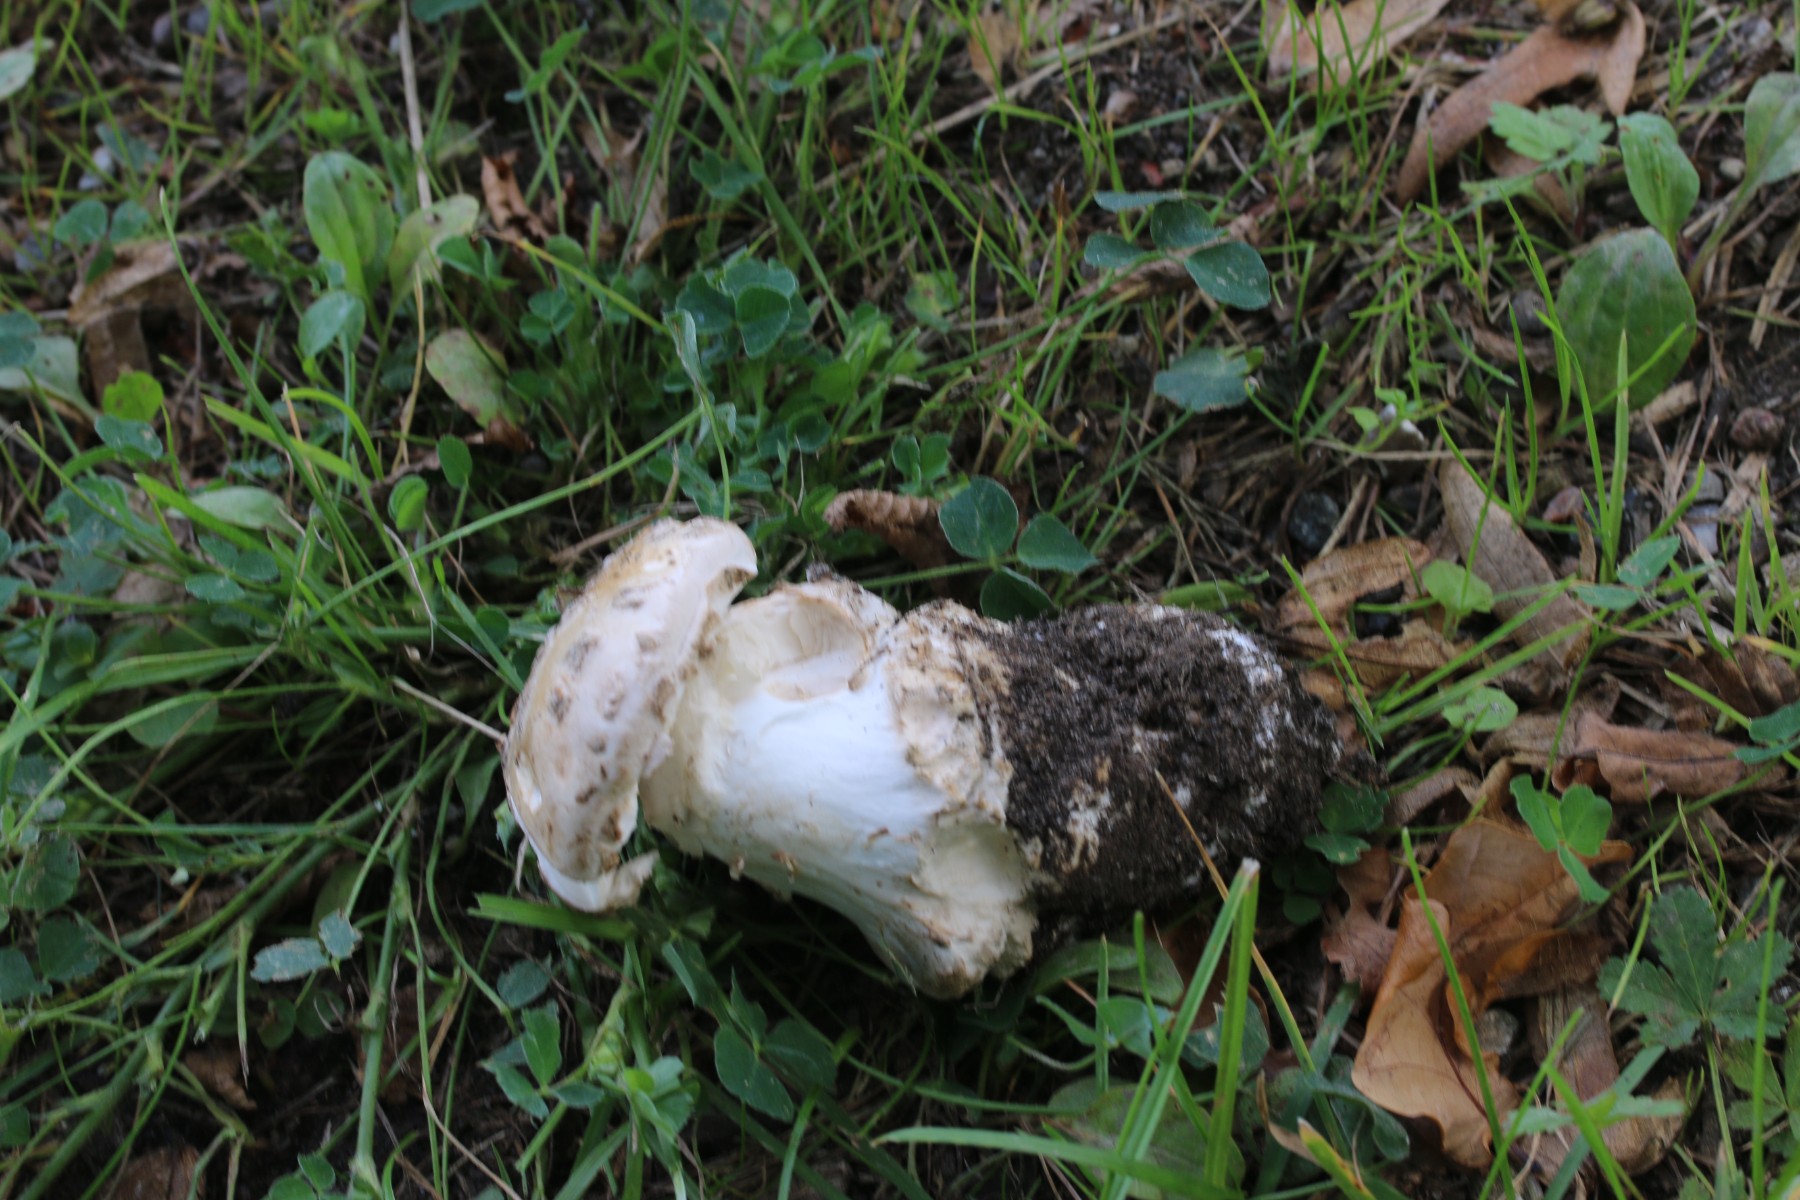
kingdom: Fungi
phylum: Basidiomycota
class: Agaricomycetes
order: Agaricales
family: Amanitaceae
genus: Amanita
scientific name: Amanita
